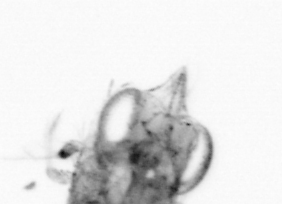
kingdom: Animalia
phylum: Arthropoda
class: Copepoda
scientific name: Copepoda
